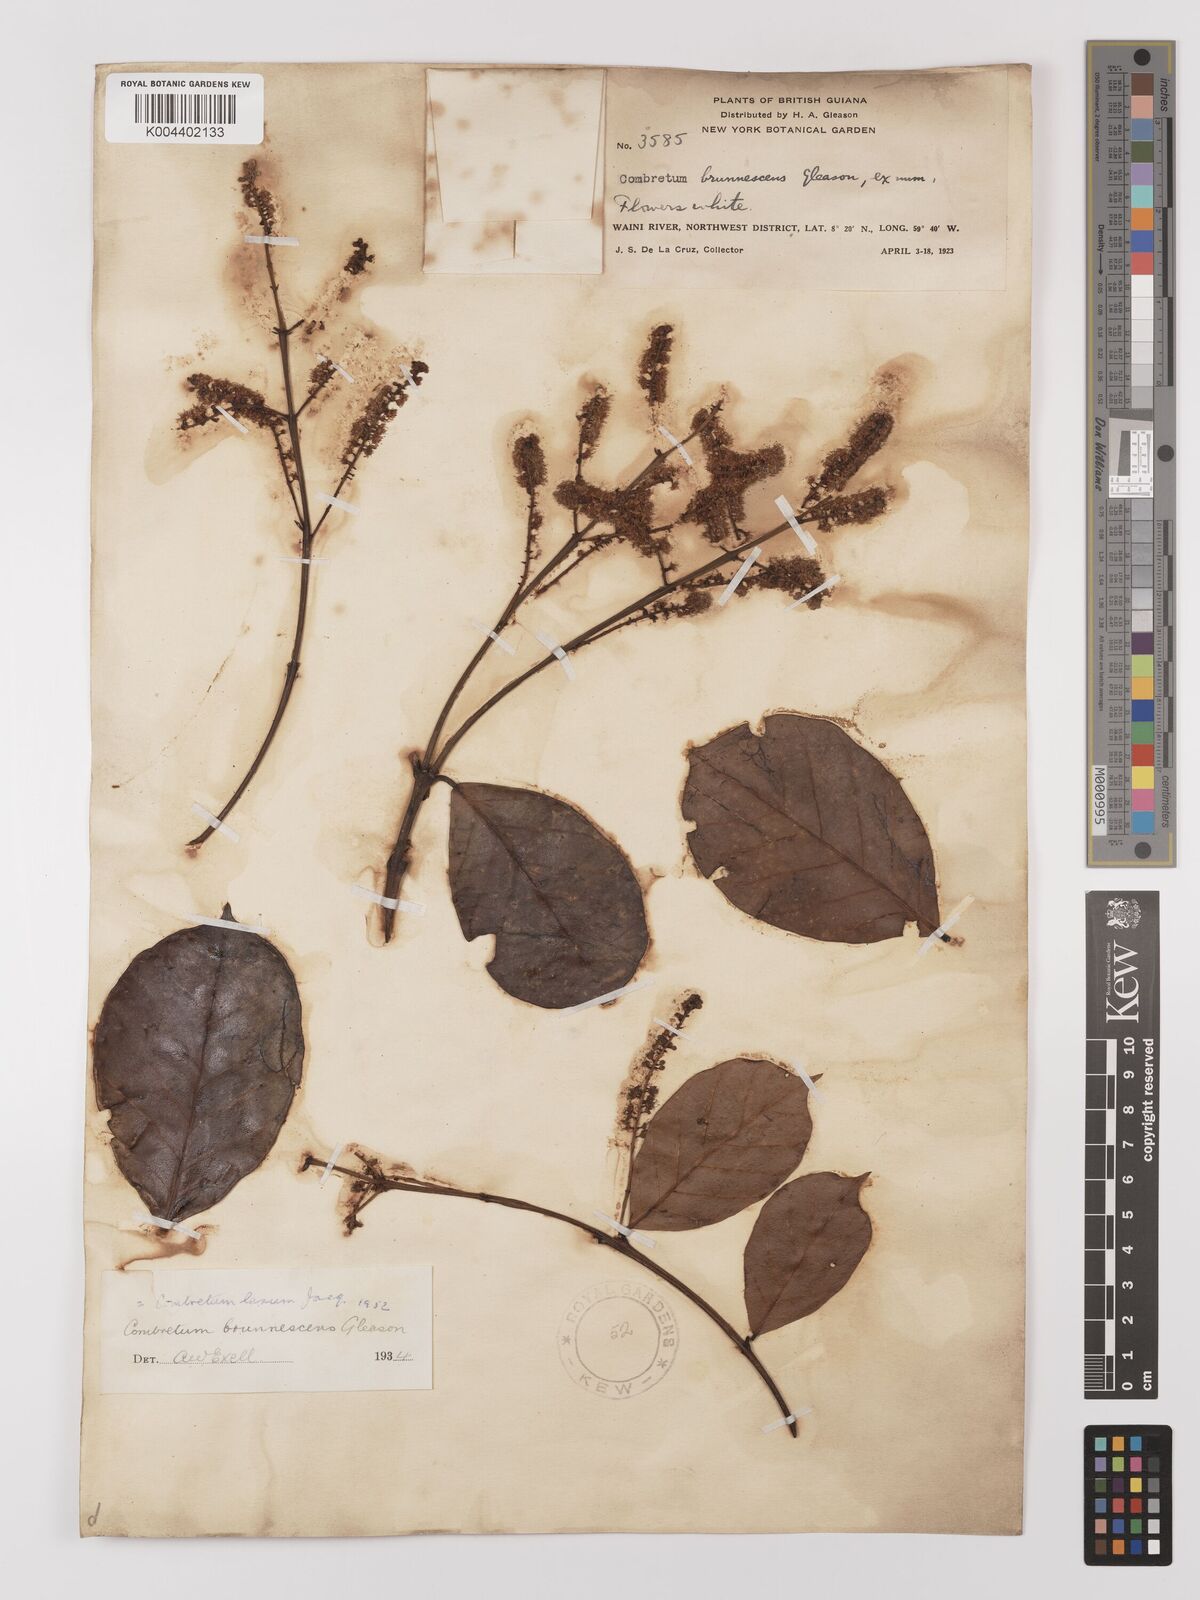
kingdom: Plantae
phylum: Tracheophyta
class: Magnoliopsida
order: Myrtales
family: Combretaceae
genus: Combretum
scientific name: Combretum
